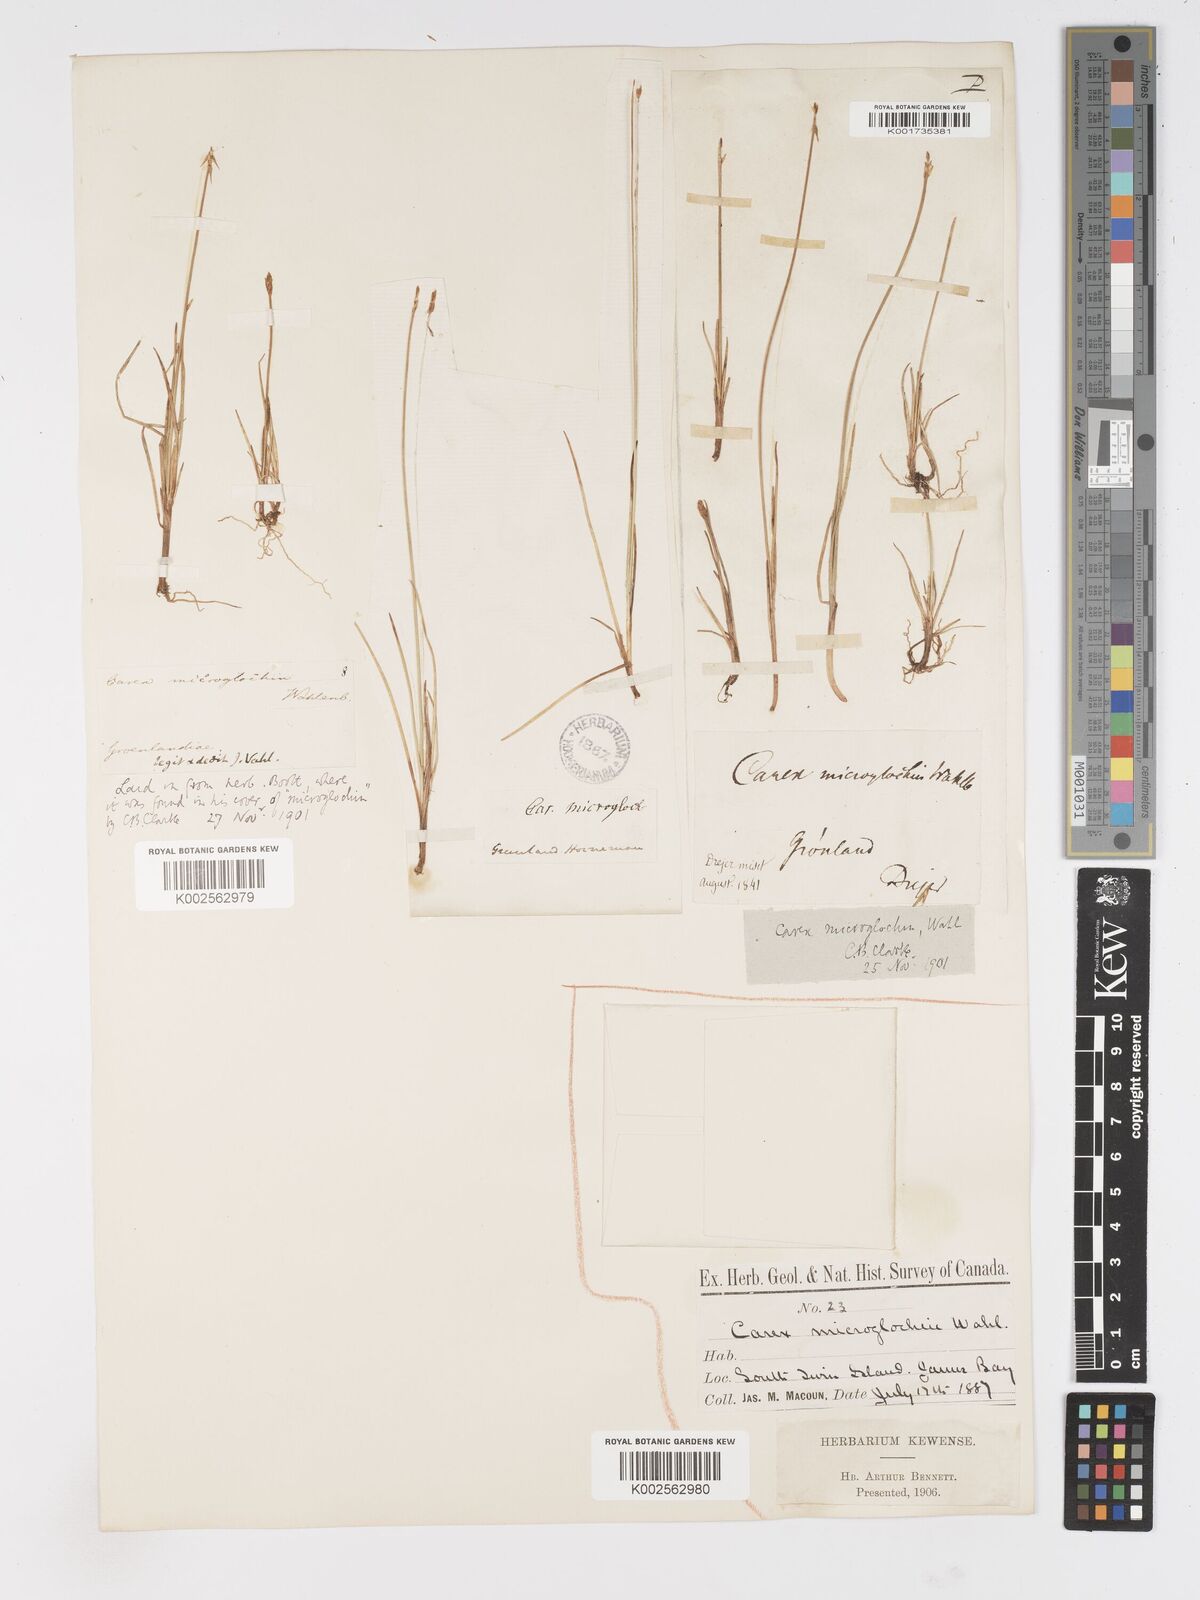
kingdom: Plantae
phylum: Tracheophyta
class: Liliopsida
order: Poales
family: Cyperaceae
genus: Carex
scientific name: Carex microglochin
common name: Bristle sedge
